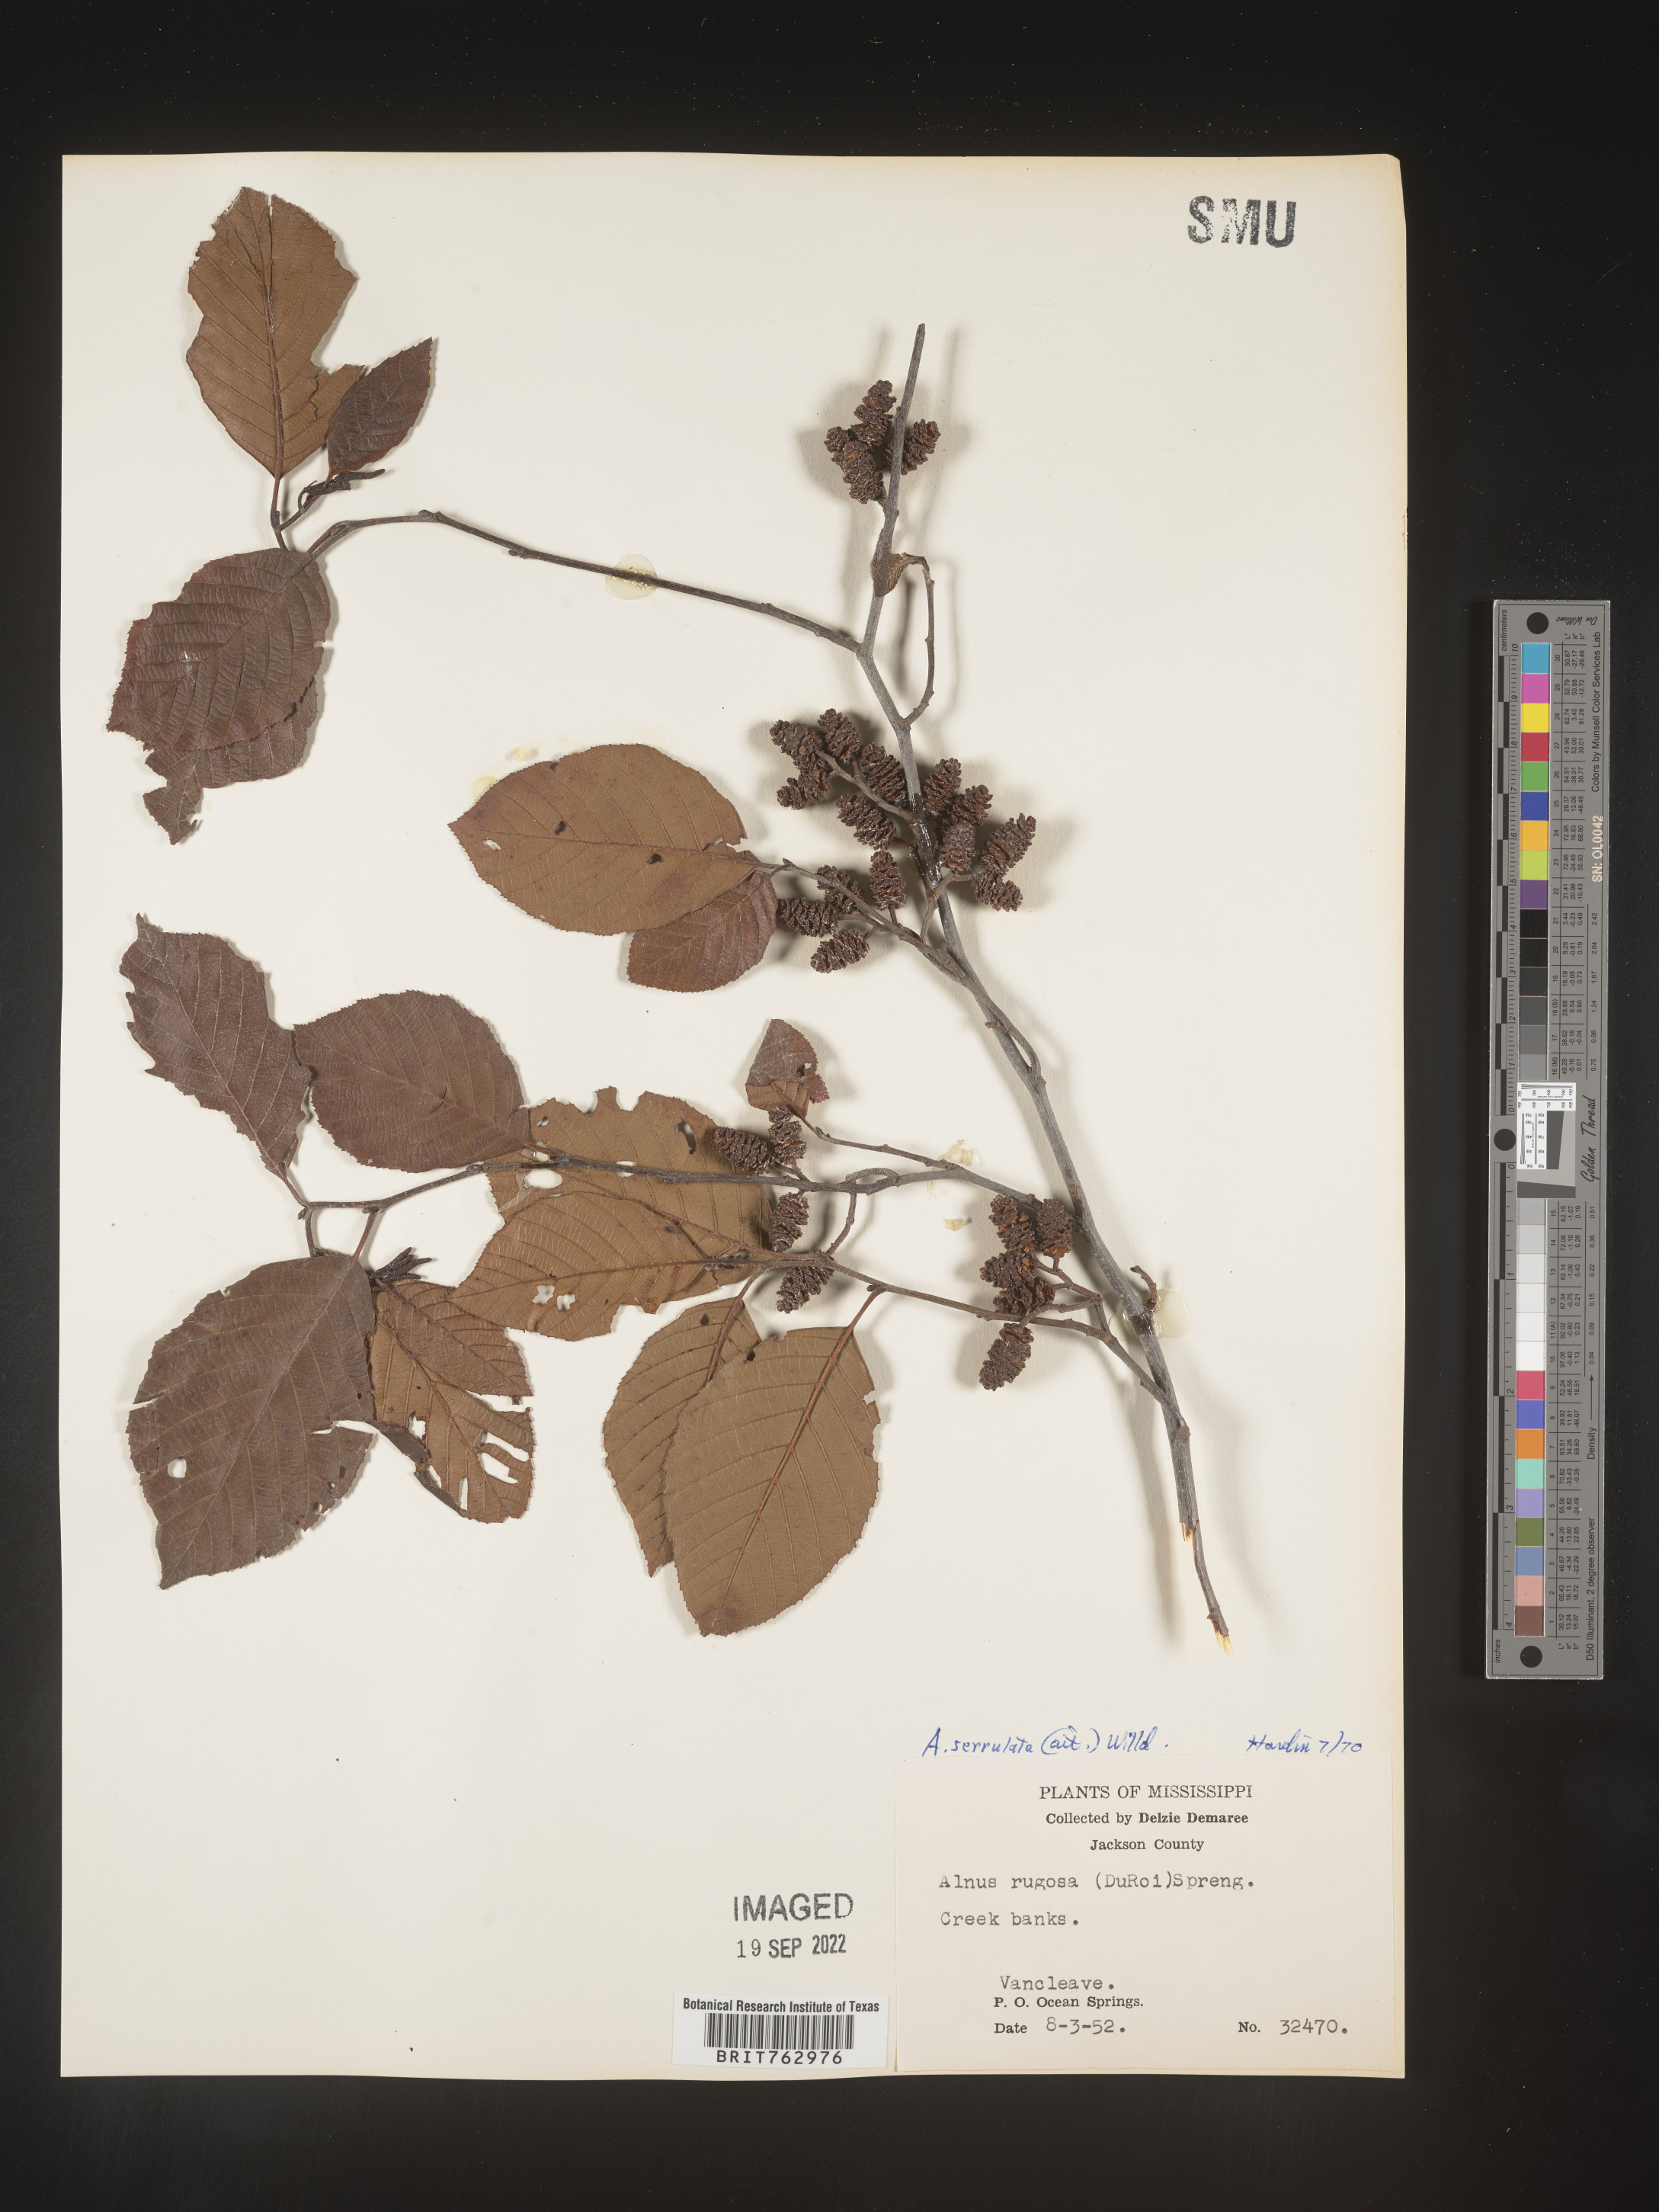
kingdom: Plantae
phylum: Tracheophyta
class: Magnoliopsida
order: Fagales
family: Betulaceae
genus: Alnus
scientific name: Alnus serrulata
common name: Hazel alder
